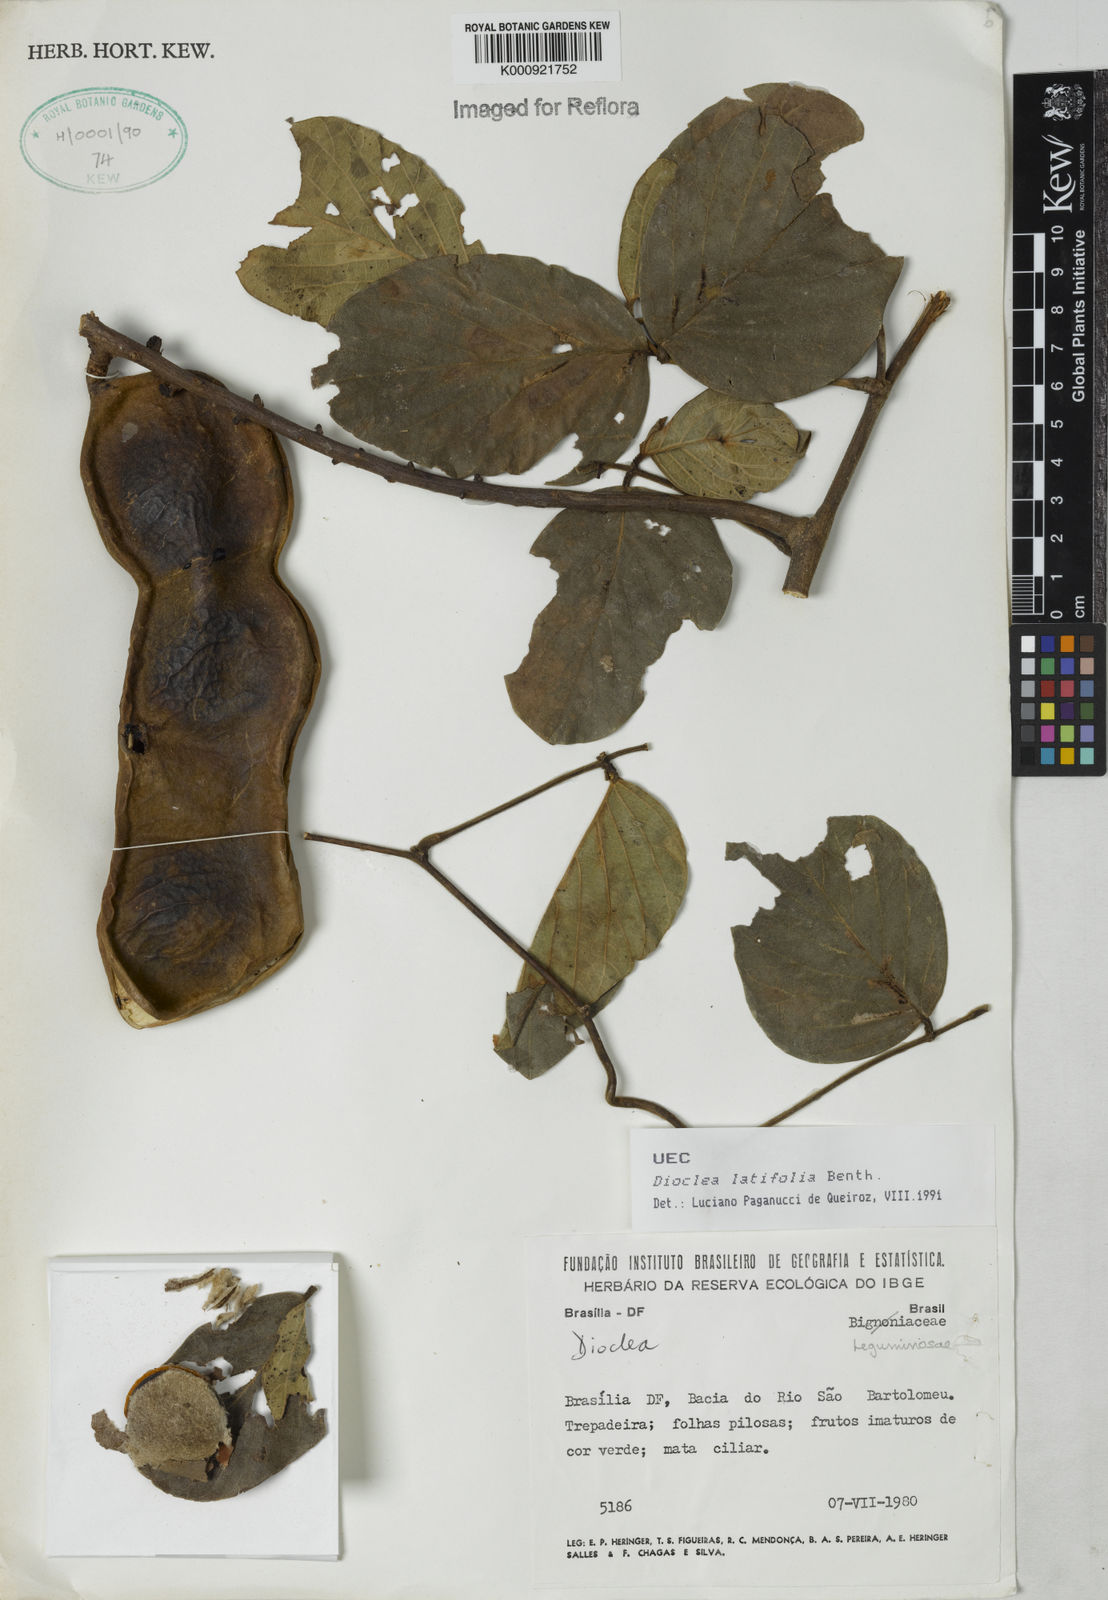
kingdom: Plantae
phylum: Tracheophyta
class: Magnoliopsida
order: Fabales
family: Fabaceae
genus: Macropsychanthus
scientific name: Macropsychanthus latifolius
